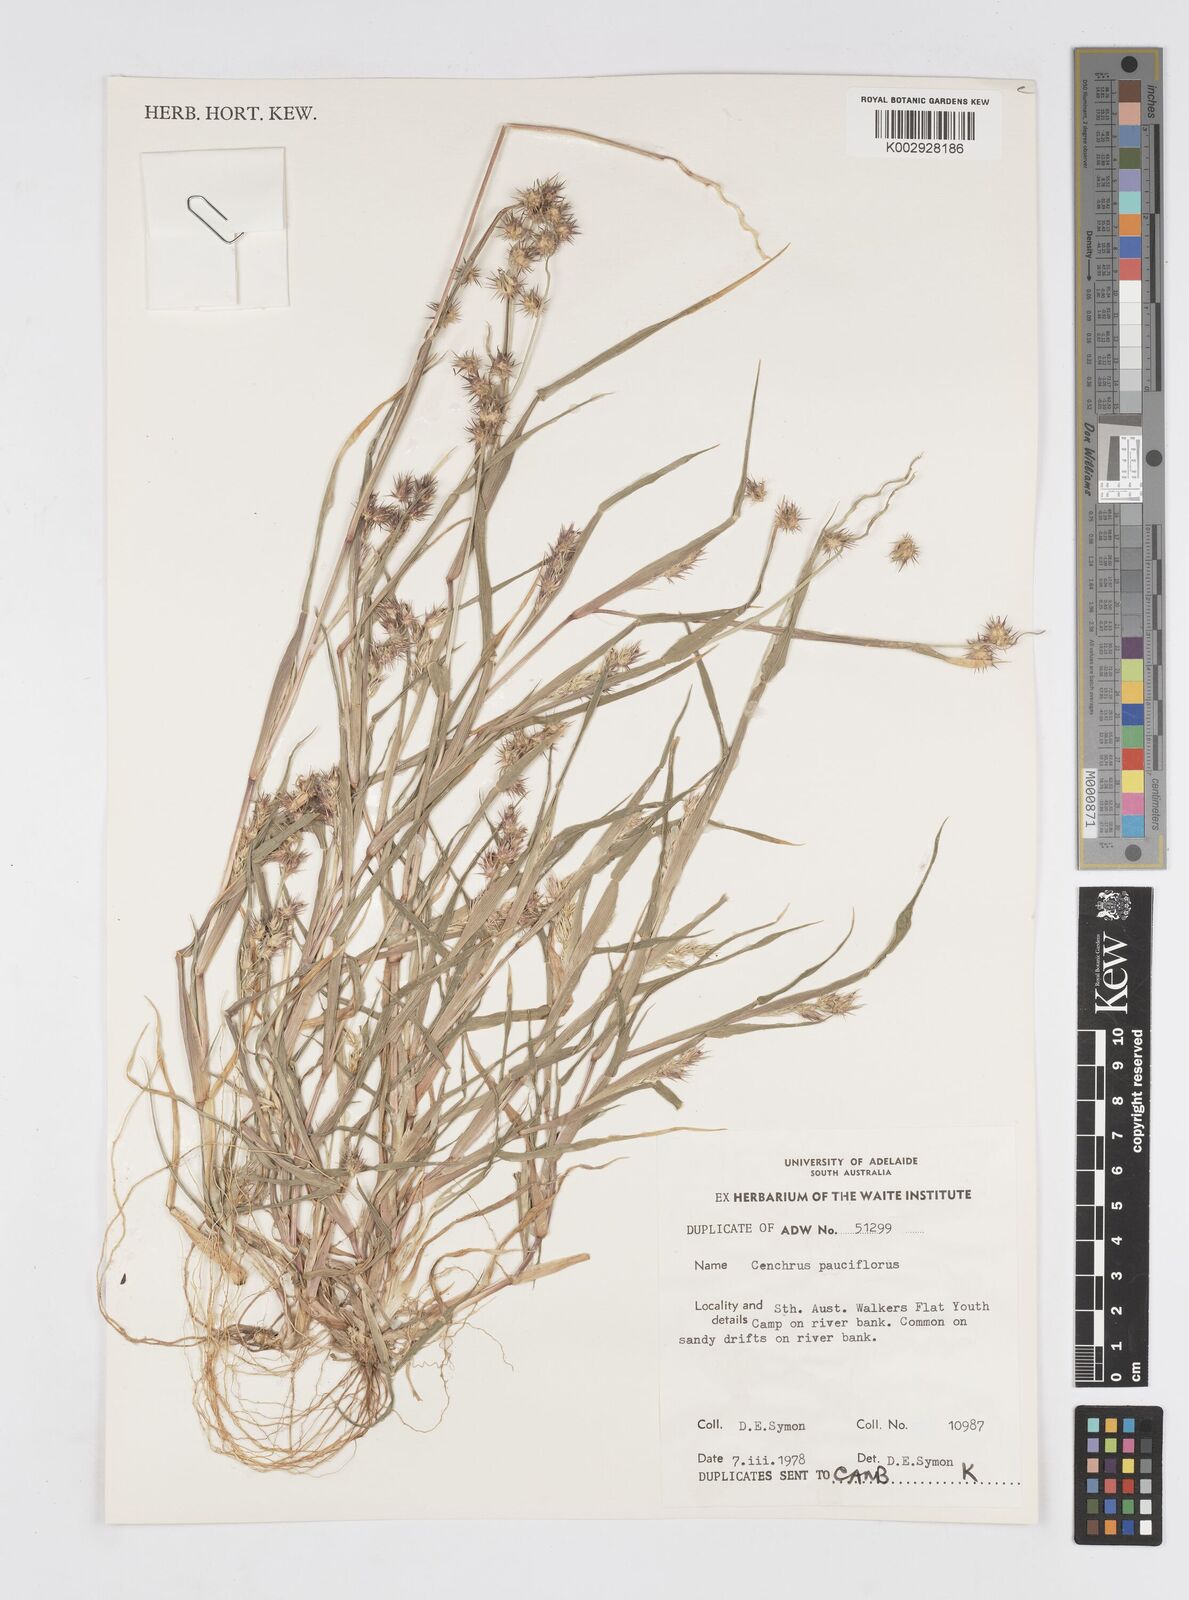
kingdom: Plantae
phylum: Tracheophyta
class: Liliopsida
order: Poales
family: Poaceae
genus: Cenchrus
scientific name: Cenchrus spinifex
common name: Coast sandbur
